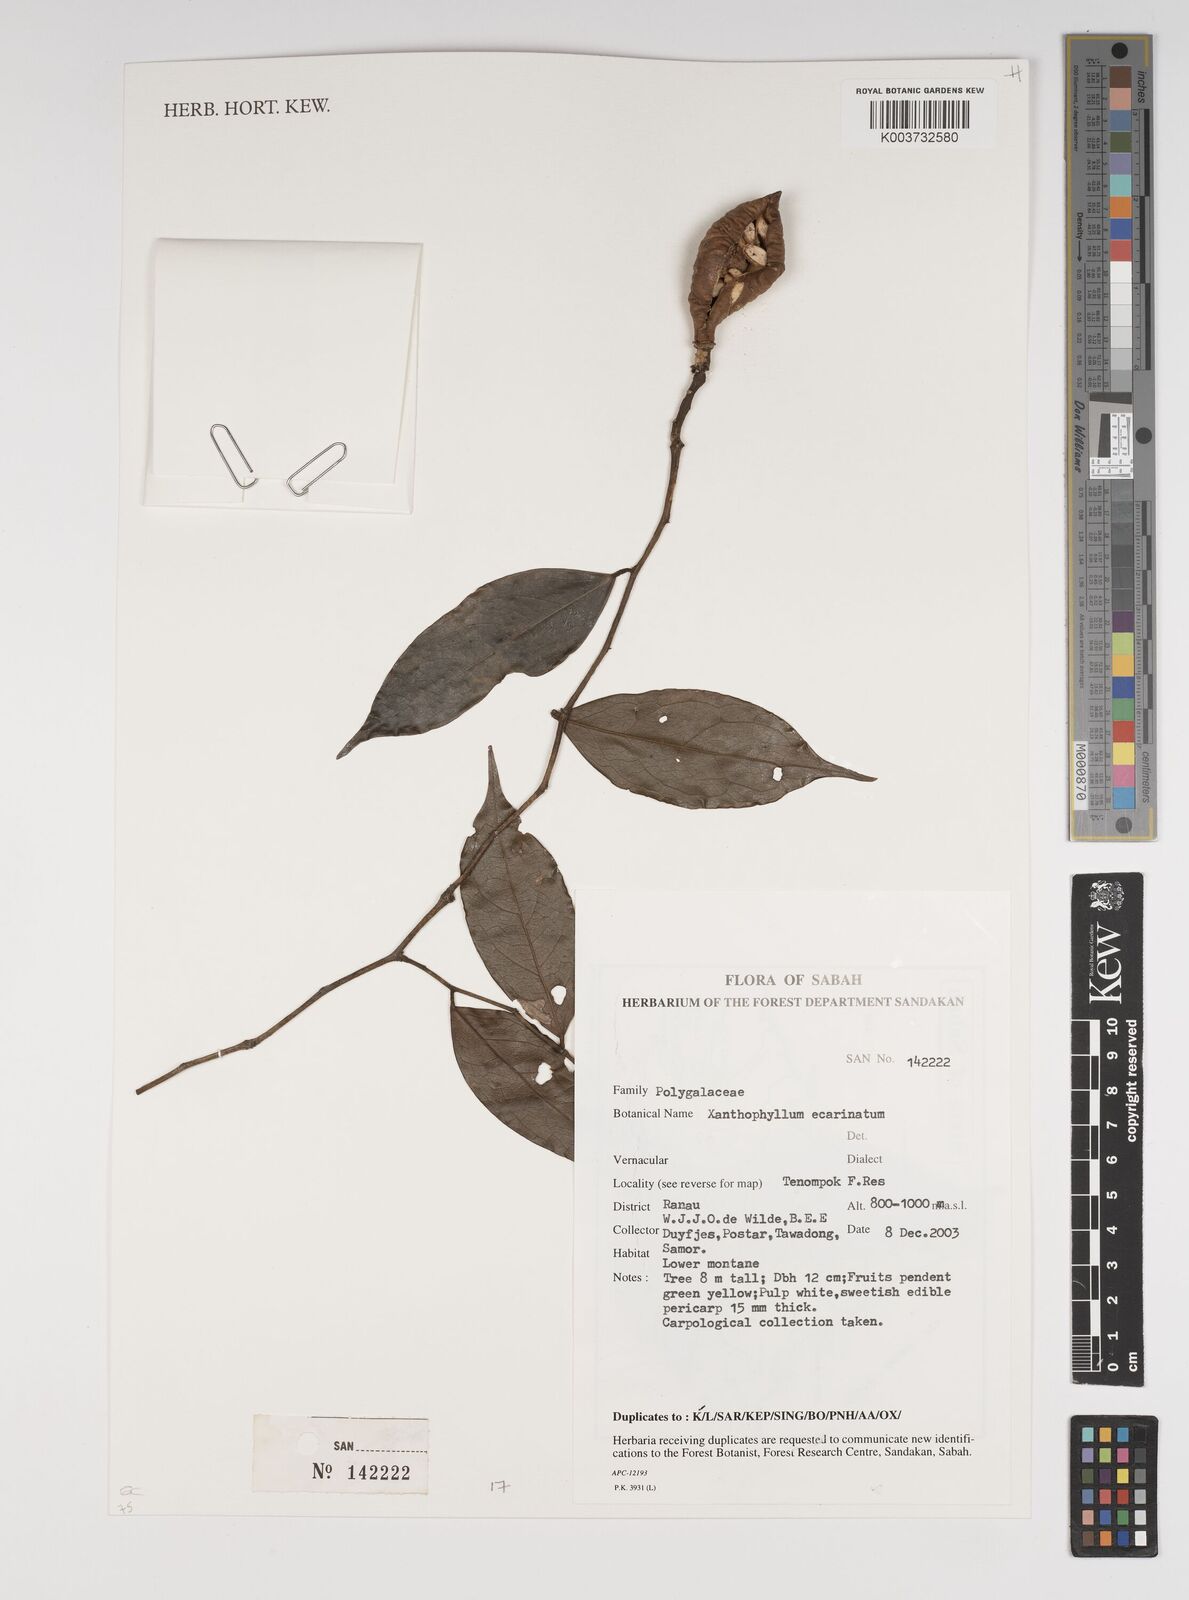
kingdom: Plantae
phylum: Tracheophyta
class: Magnoliopsida
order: Fabales
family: Polygalaceae
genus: Xanthophyllum
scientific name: Xanthophyllum ecarinatum
